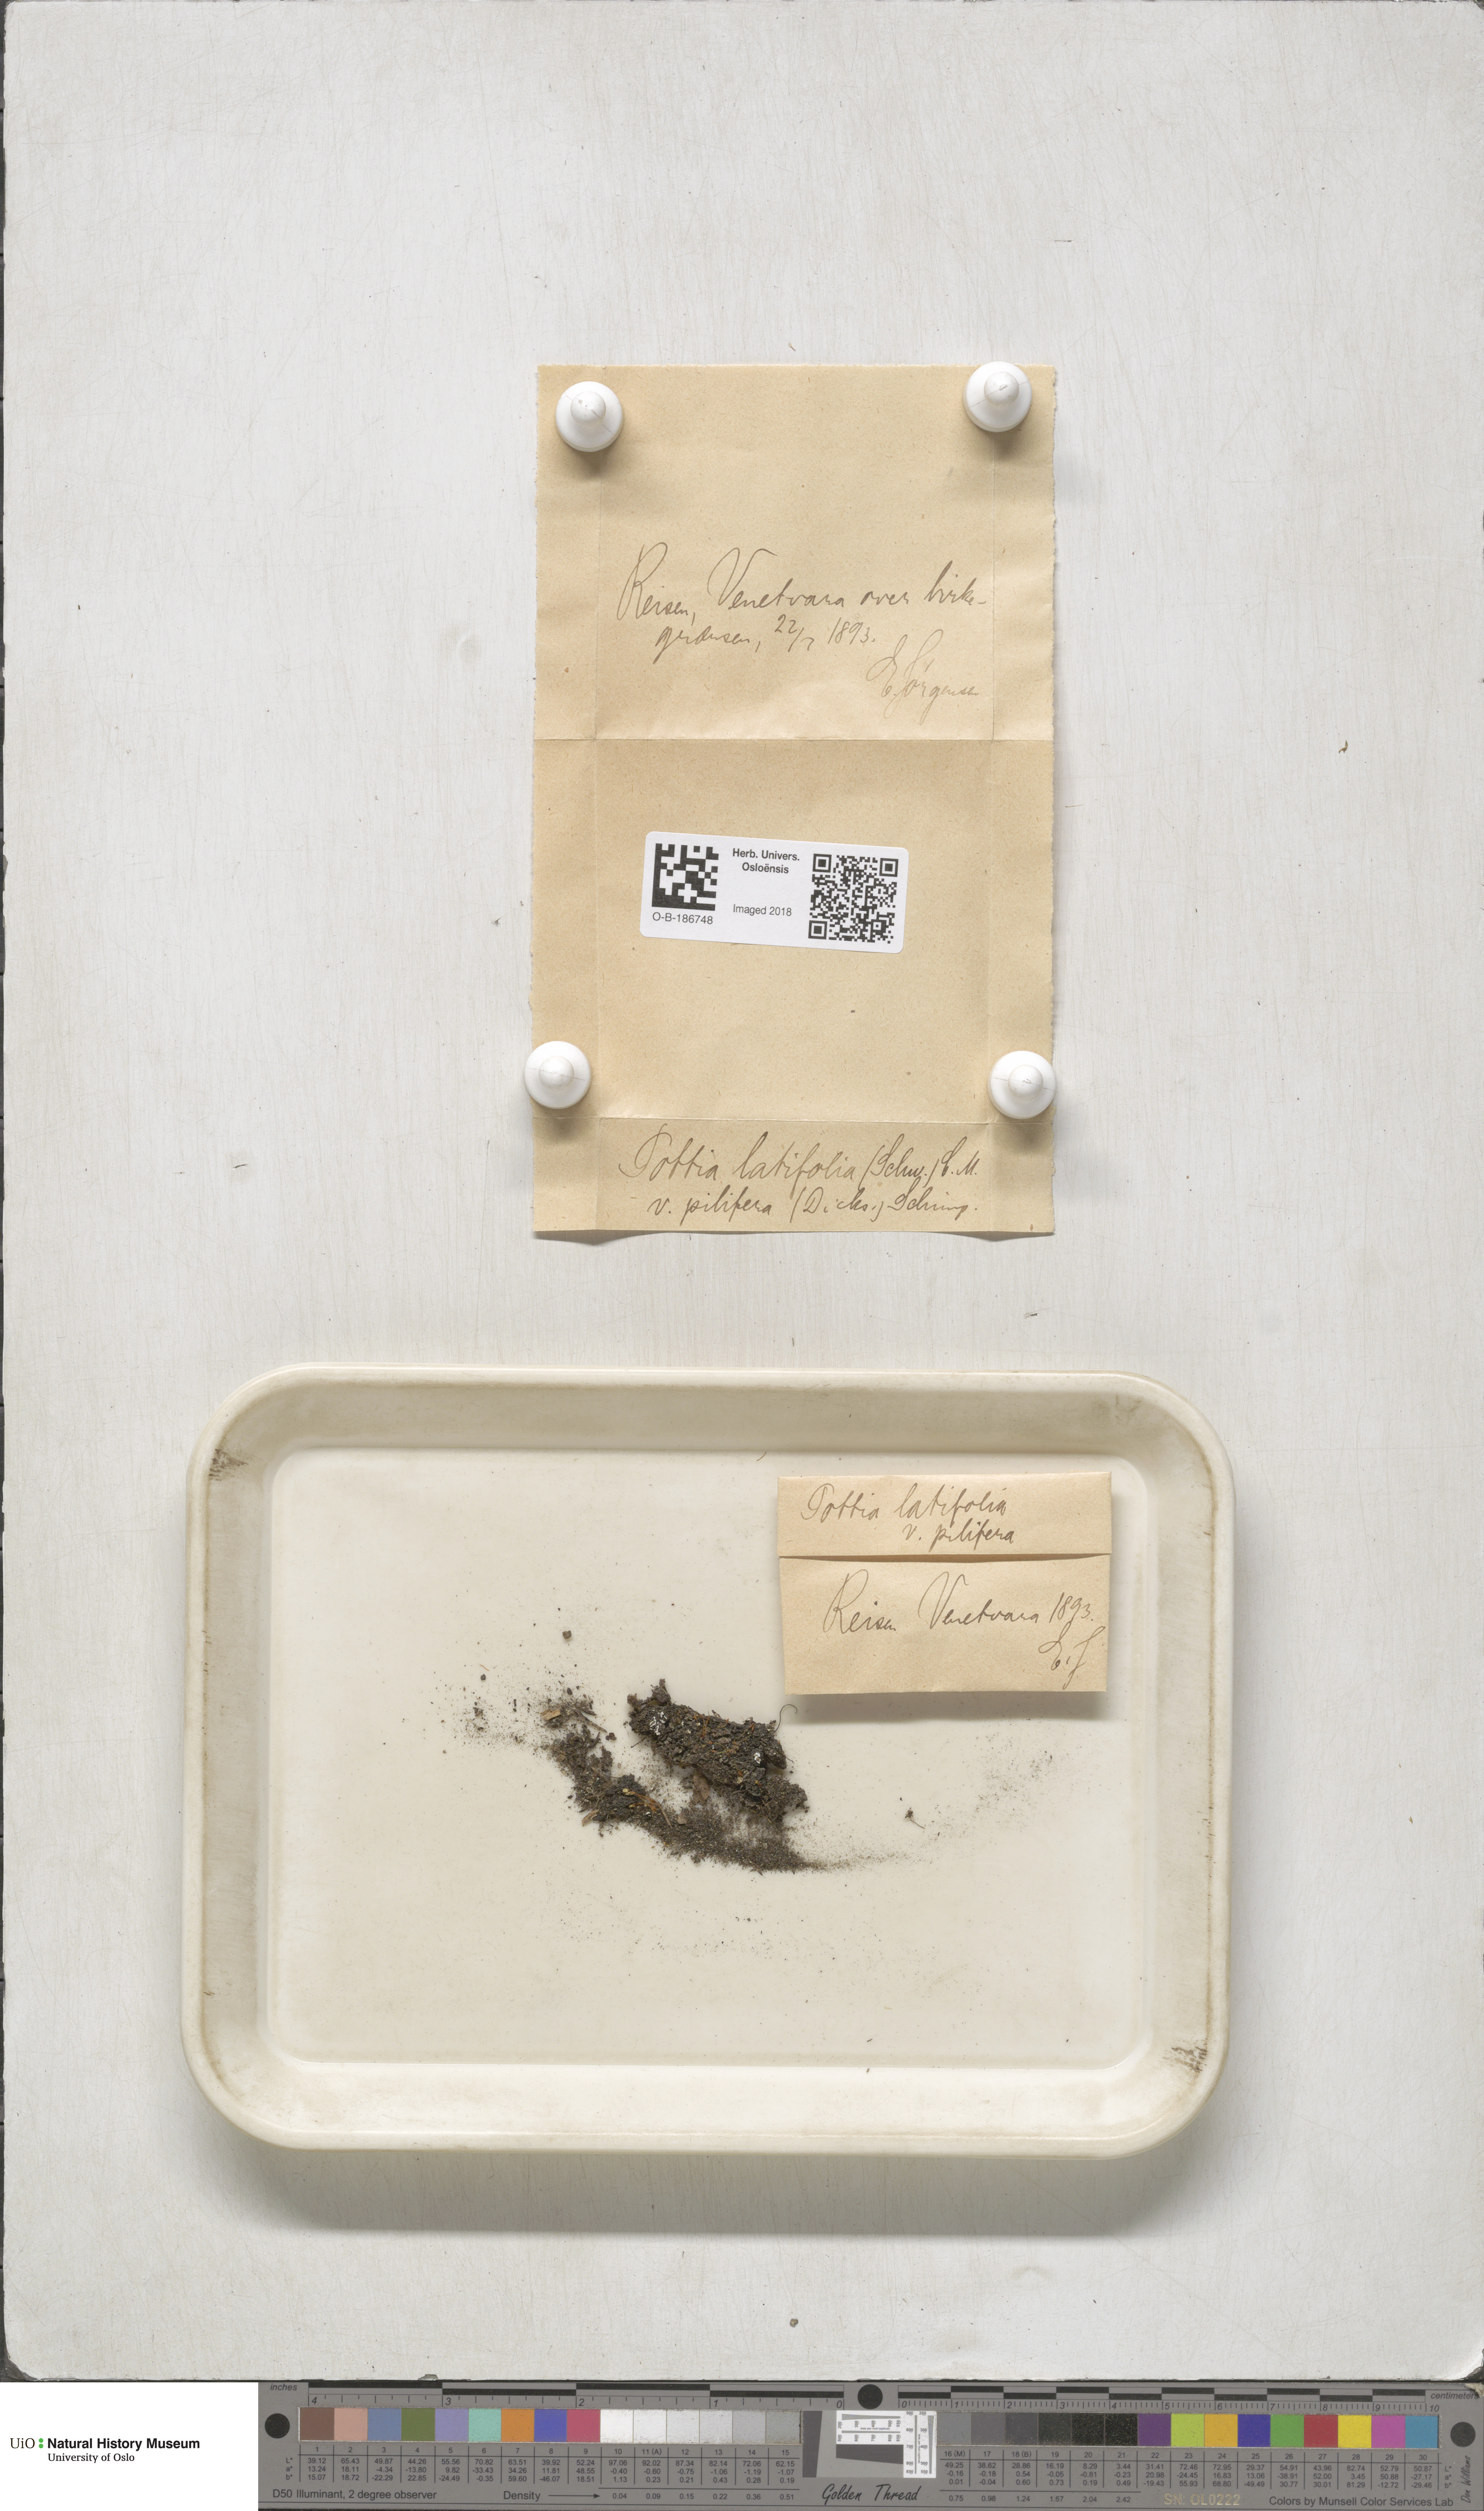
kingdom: Plantae
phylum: Bryophyta
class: Bryopsida
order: Pottiales
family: Pottiaceae
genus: Stegonia
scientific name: Stegonia latifolia
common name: Hood-leaved screw-moss
